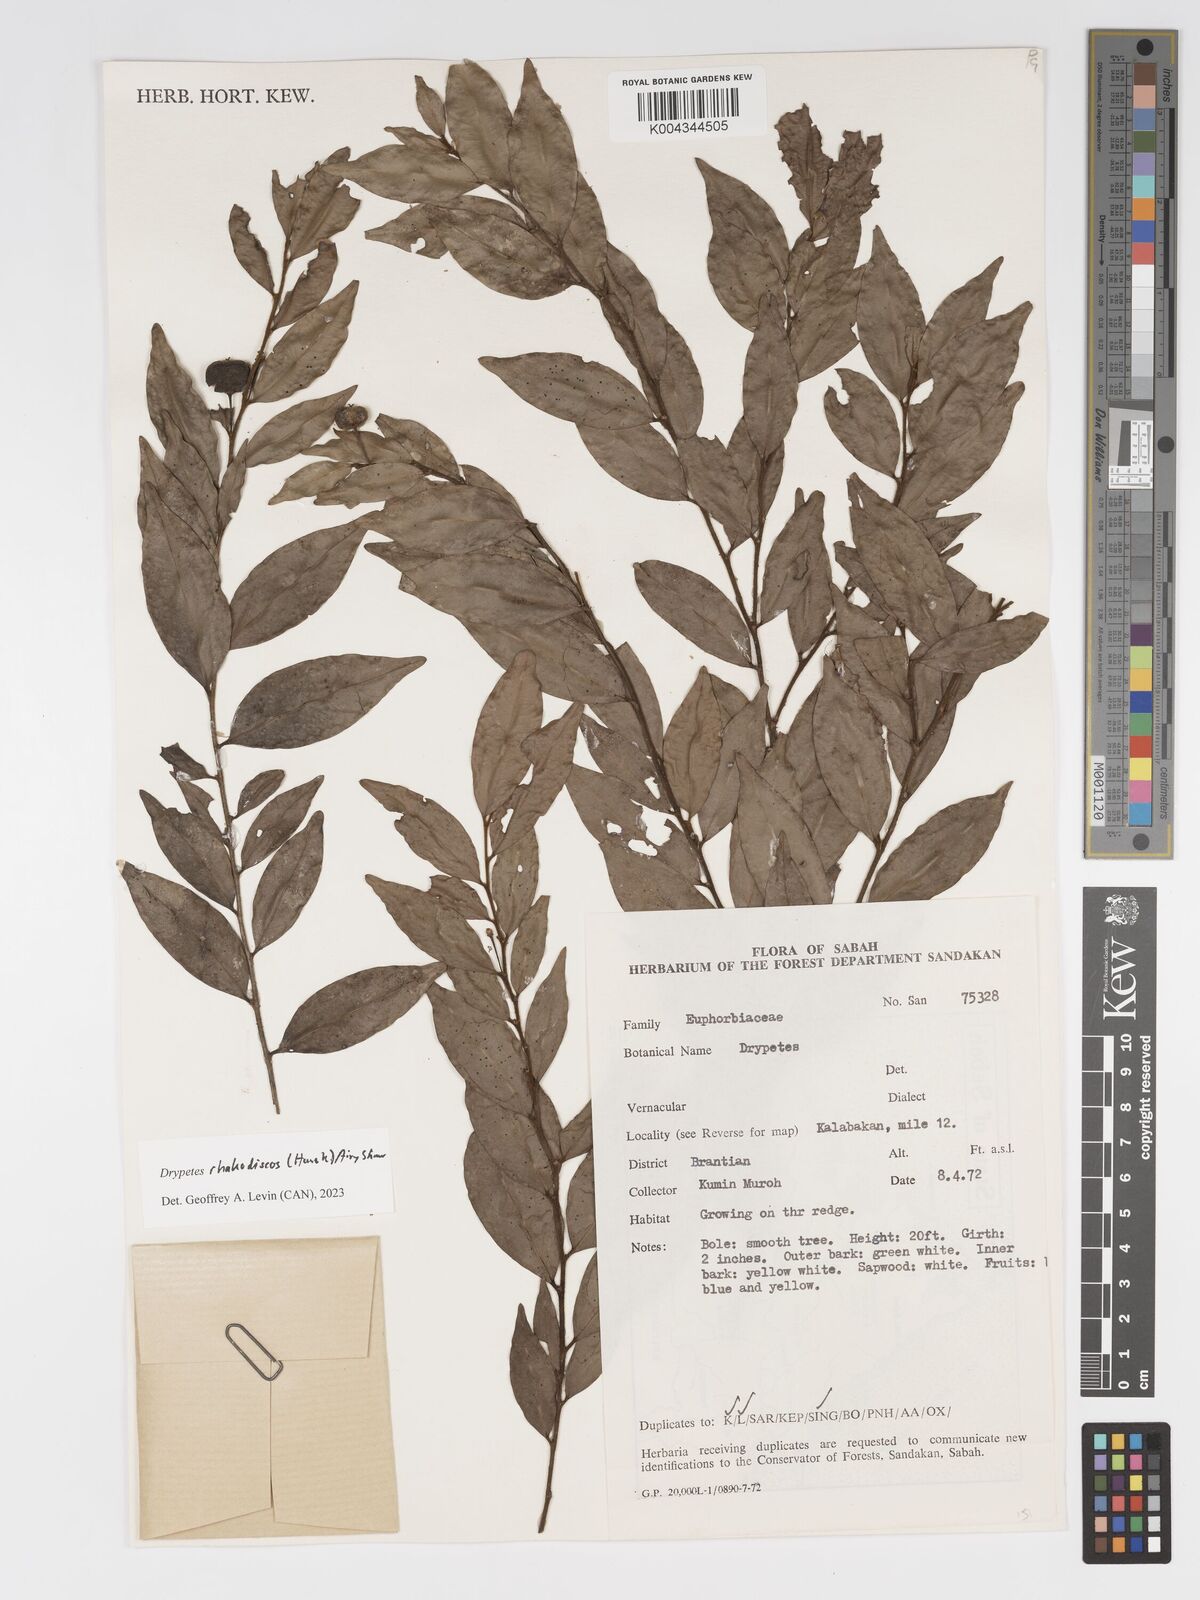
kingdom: Plantae
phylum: Tracheophyta
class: Magnoliopsida
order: Malpighiales
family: Putranjivaceae
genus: Drypetes
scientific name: Drypetes rhakodiskos
